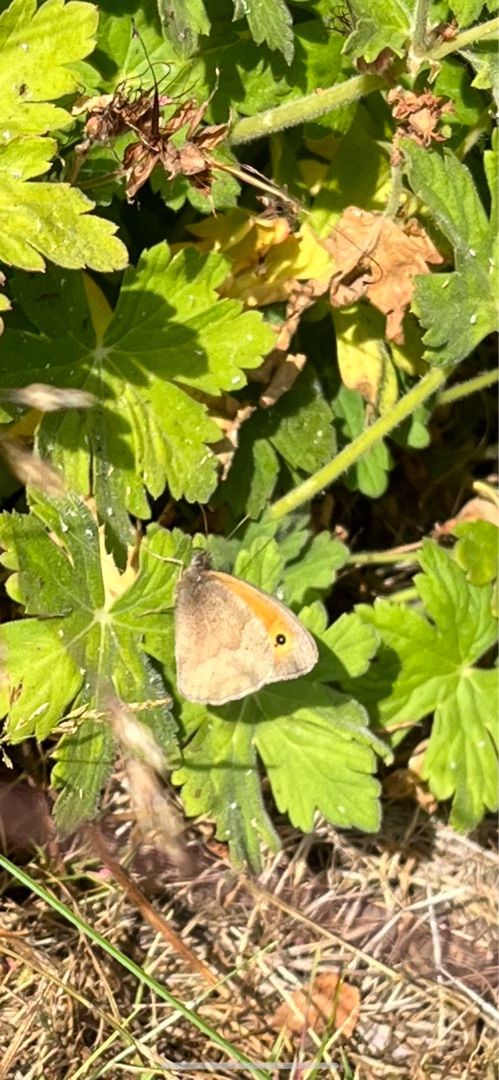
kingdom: Animalia
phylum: Arthropoda
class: Insecta
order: Lepidoptera
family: Nymphalidae
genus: Maniola
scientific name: Maniola jurtina
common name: Græsrandøje
